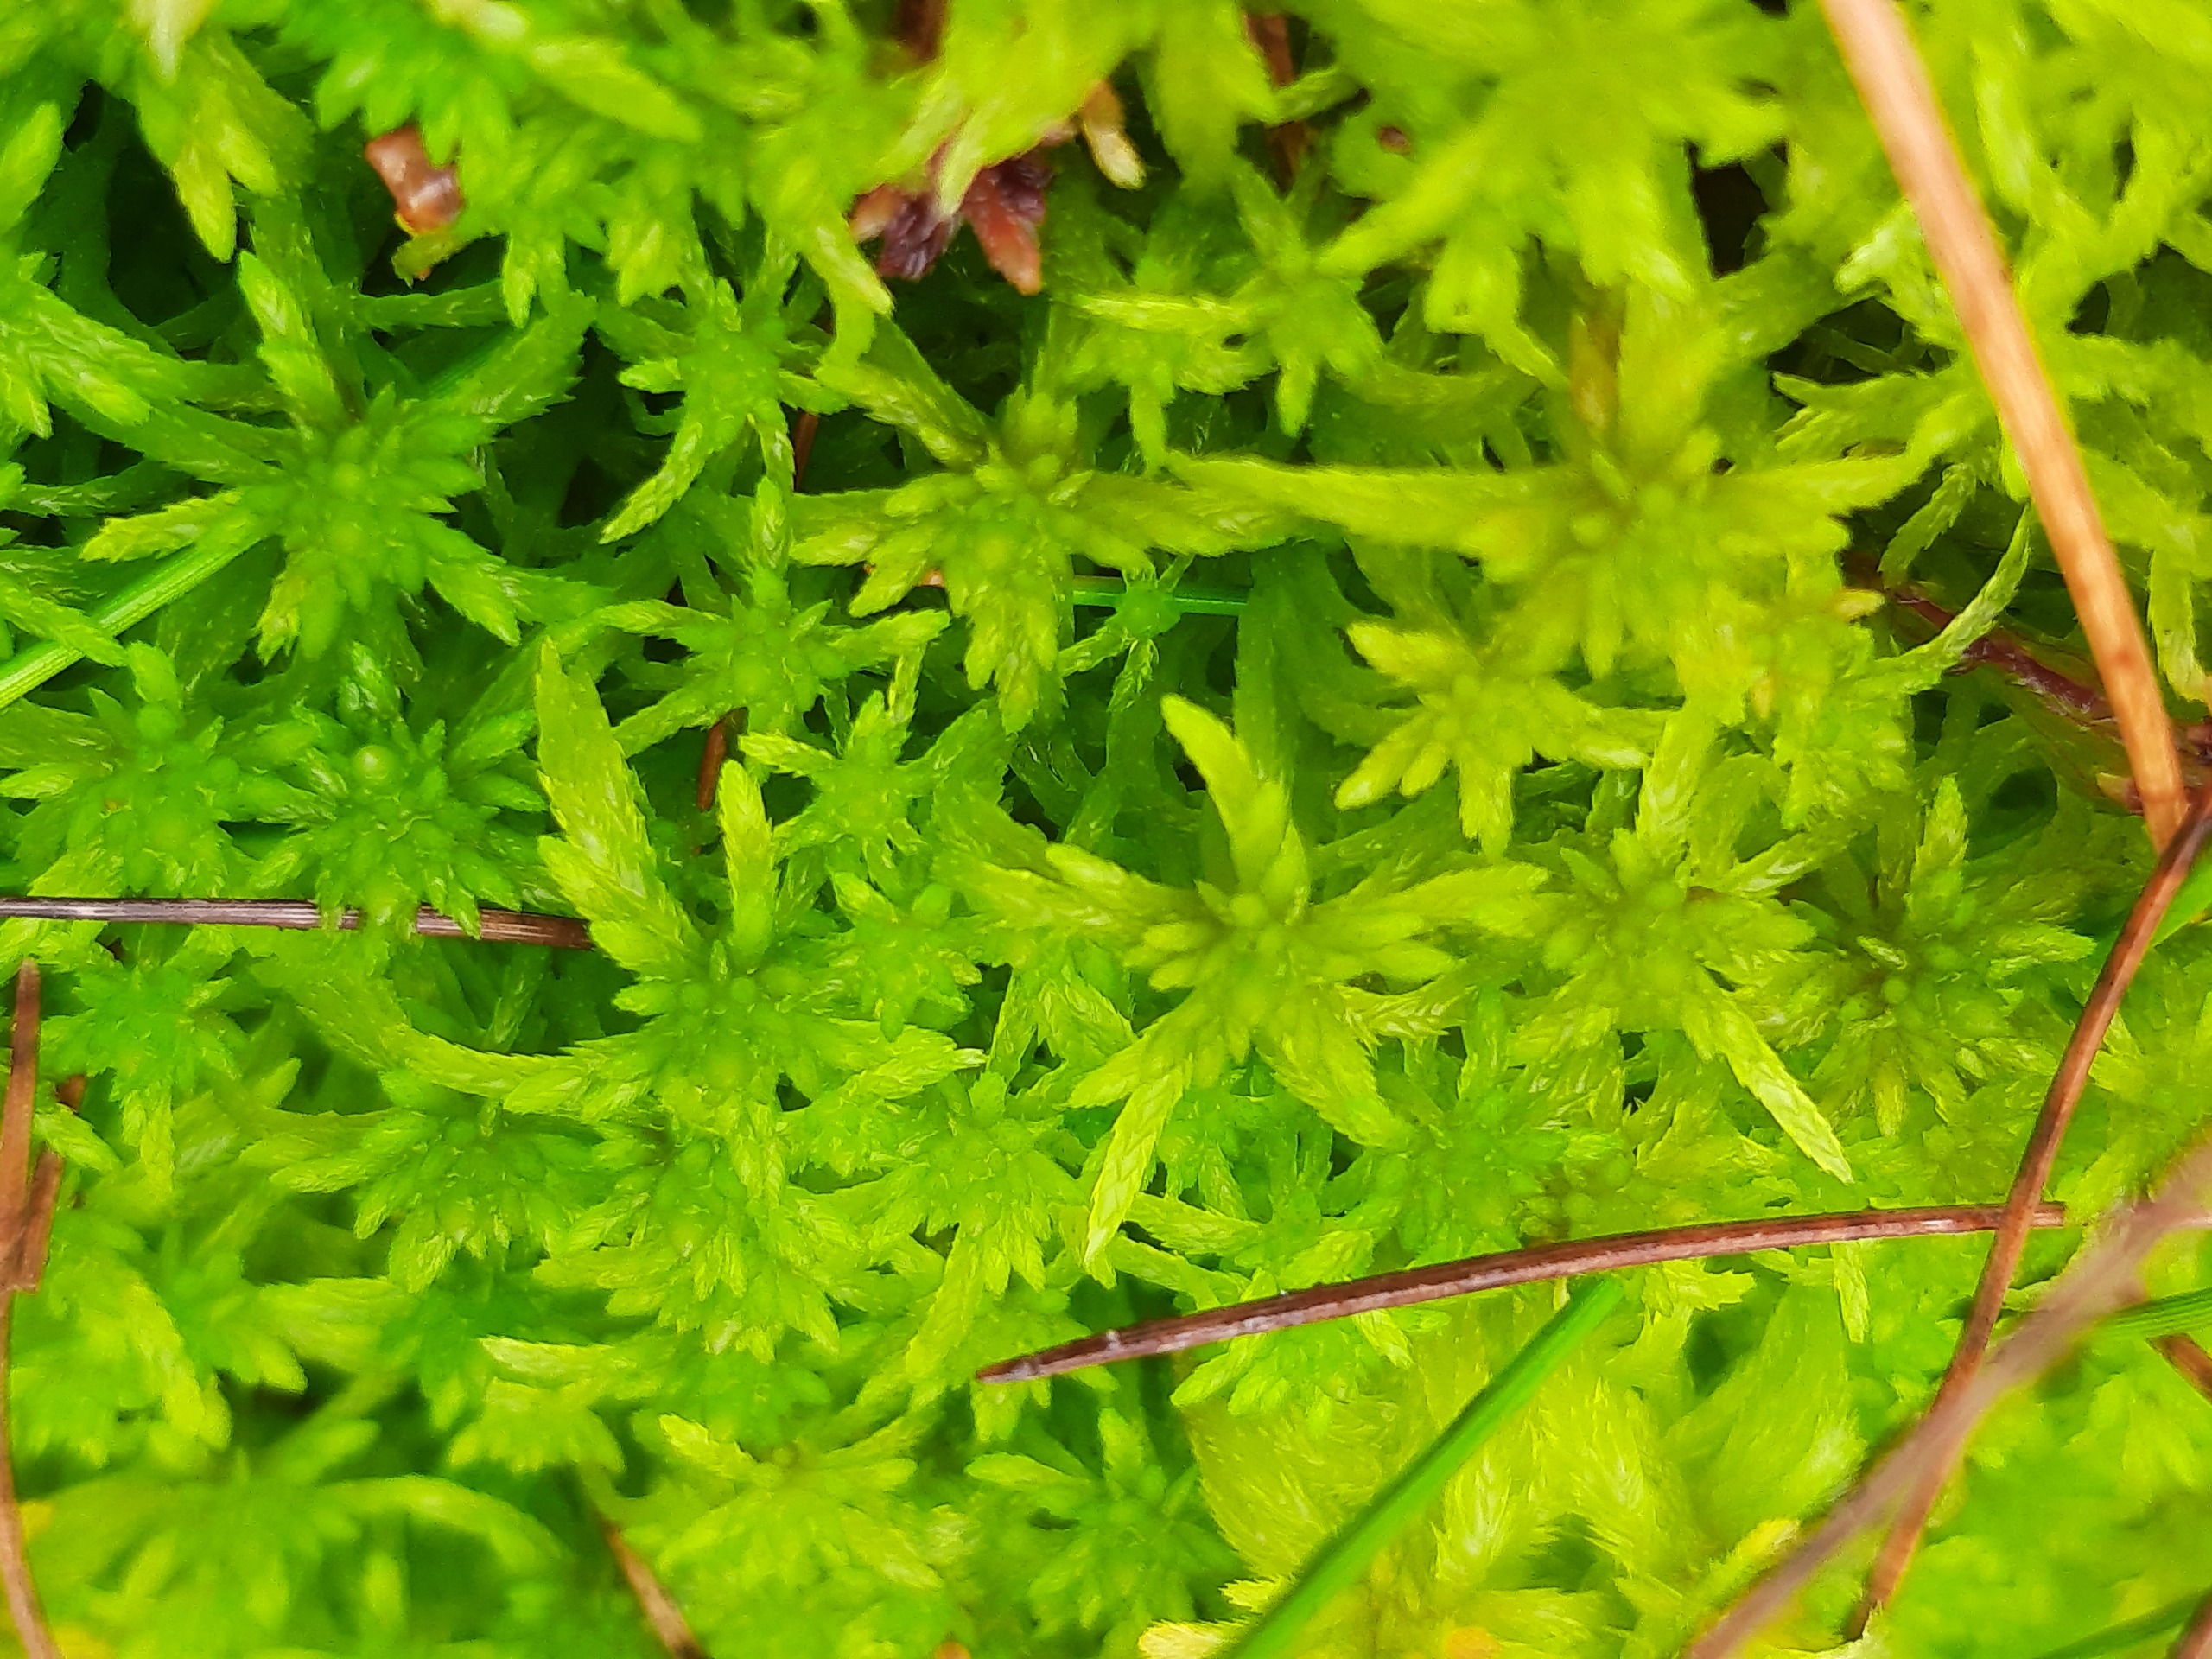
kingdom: Plantae
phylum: Bryophyta
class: Sphagnopsida
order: Sphagnales
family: Sphagnaceae
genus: Sphagnum
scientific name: Sphagnum fimbriatum
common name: Frynset tørvemos
